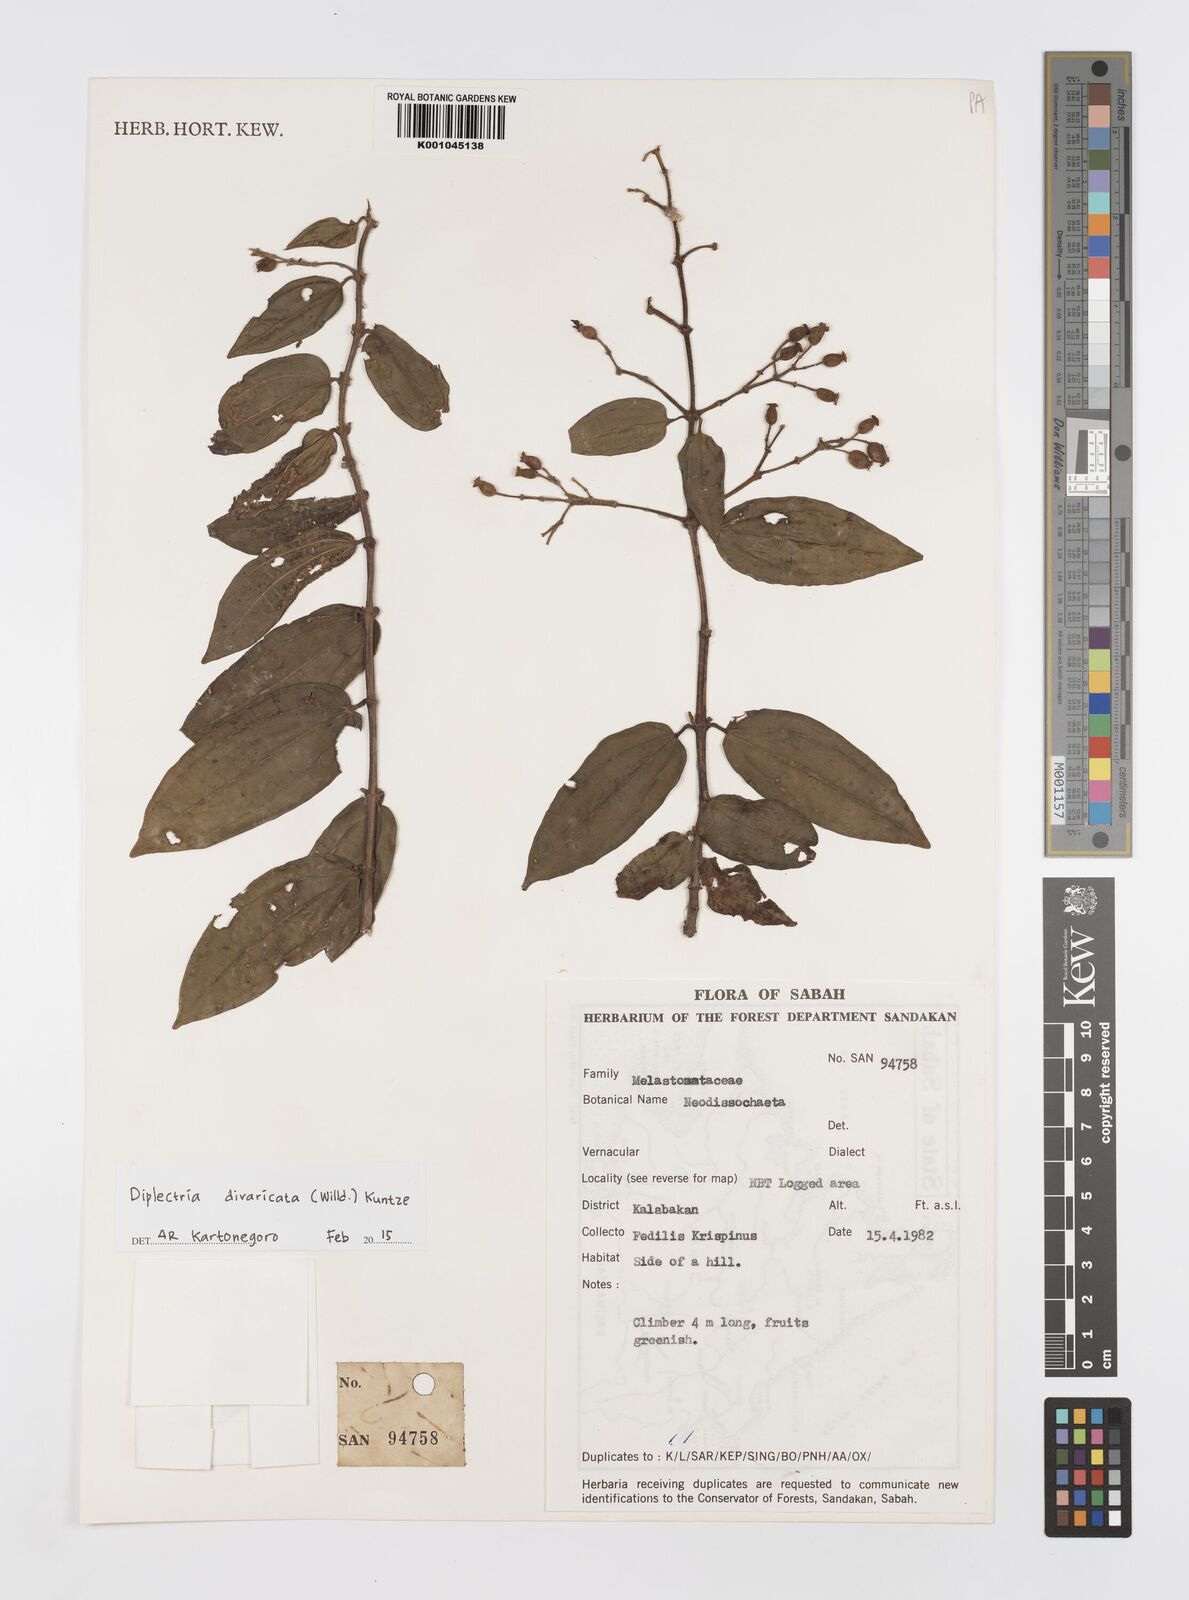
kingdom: Plantae
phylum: Tracheophyta
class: Magnoliopsida
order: Myrtales
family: Melastomataceae
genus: Diplectria
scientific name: Diplectria divaricata
